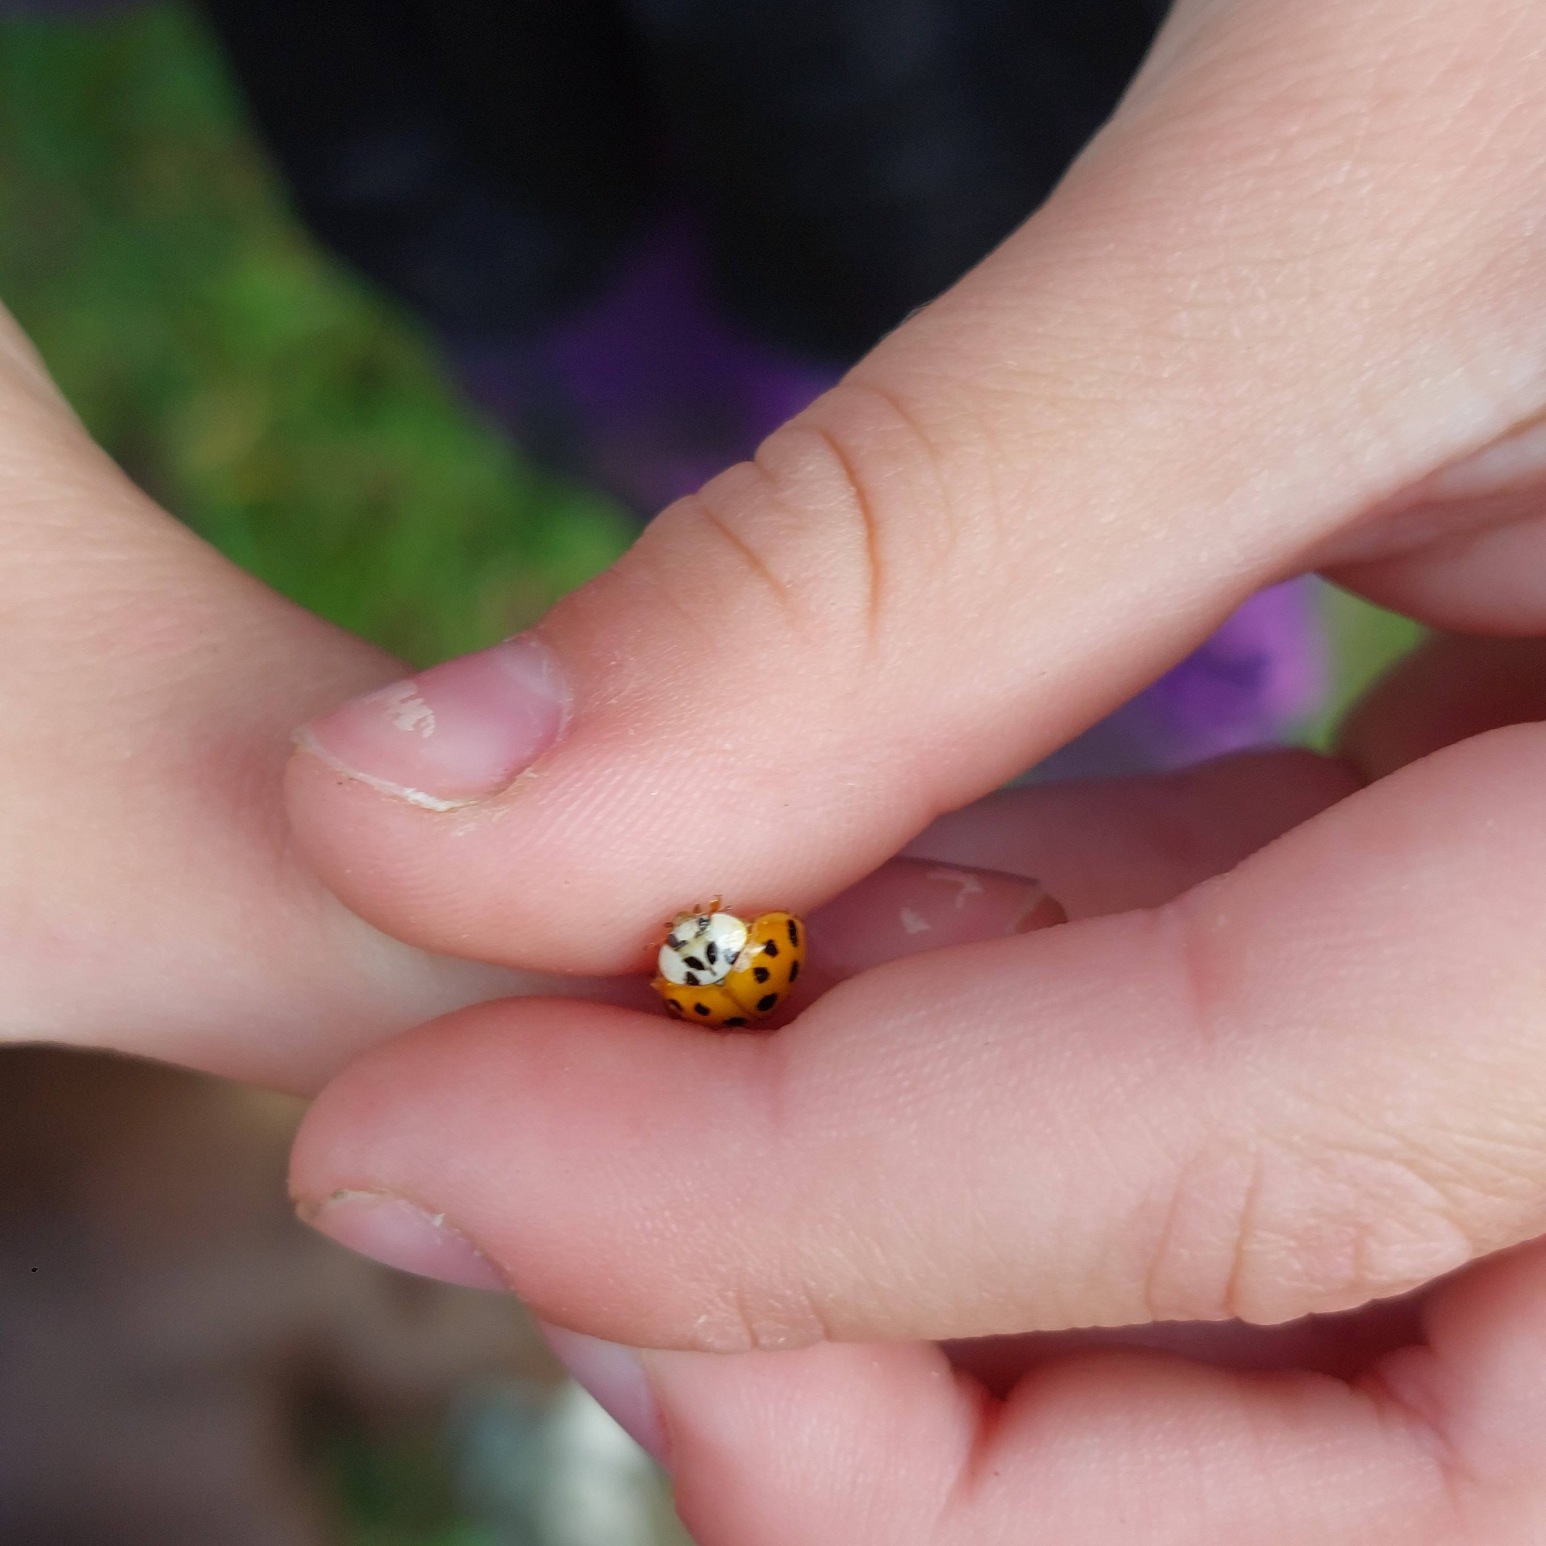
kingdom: Animalia
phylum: Arthropoda
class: Insecta
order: Coleoptera
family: Coccinellidae
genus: Harmonia
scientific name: Harmonia axyridis
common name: Harlekinmariehøne
